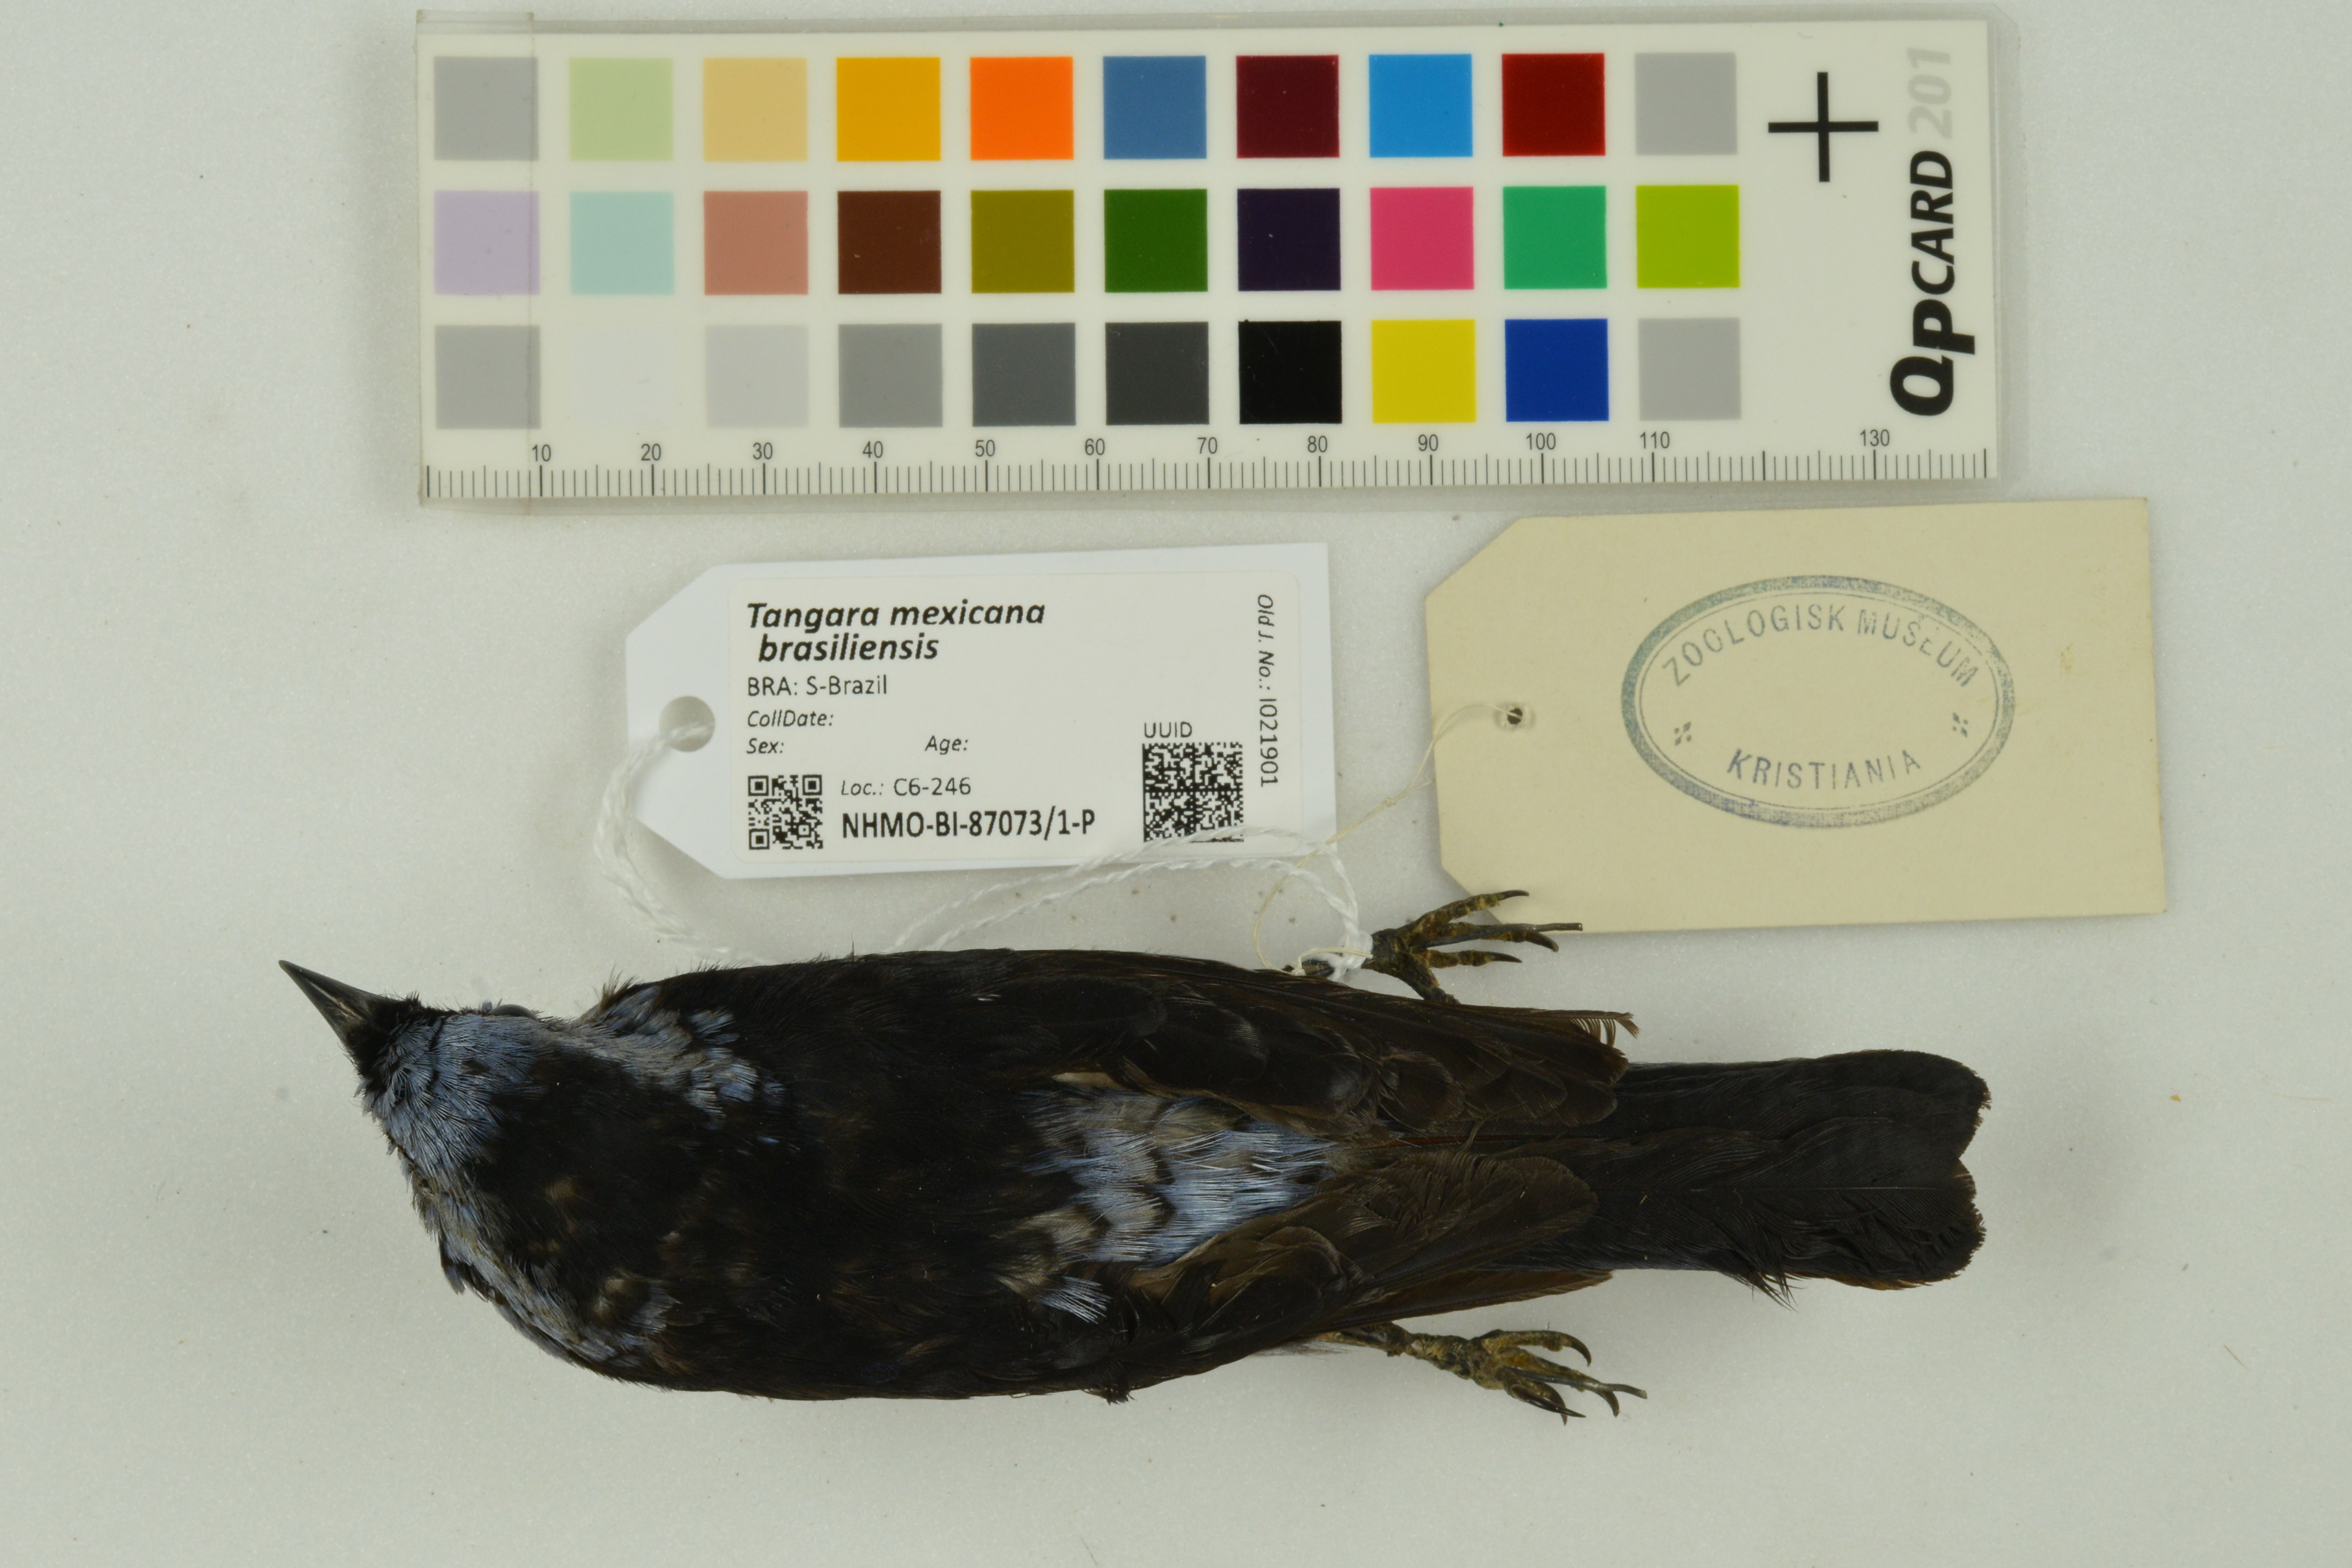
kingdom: Animalia
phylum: Chordata
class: Aves
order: Passeriformes
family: Thraupidae
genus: Tangara
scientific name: Tangara mexicana
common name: Turquoise tanager
